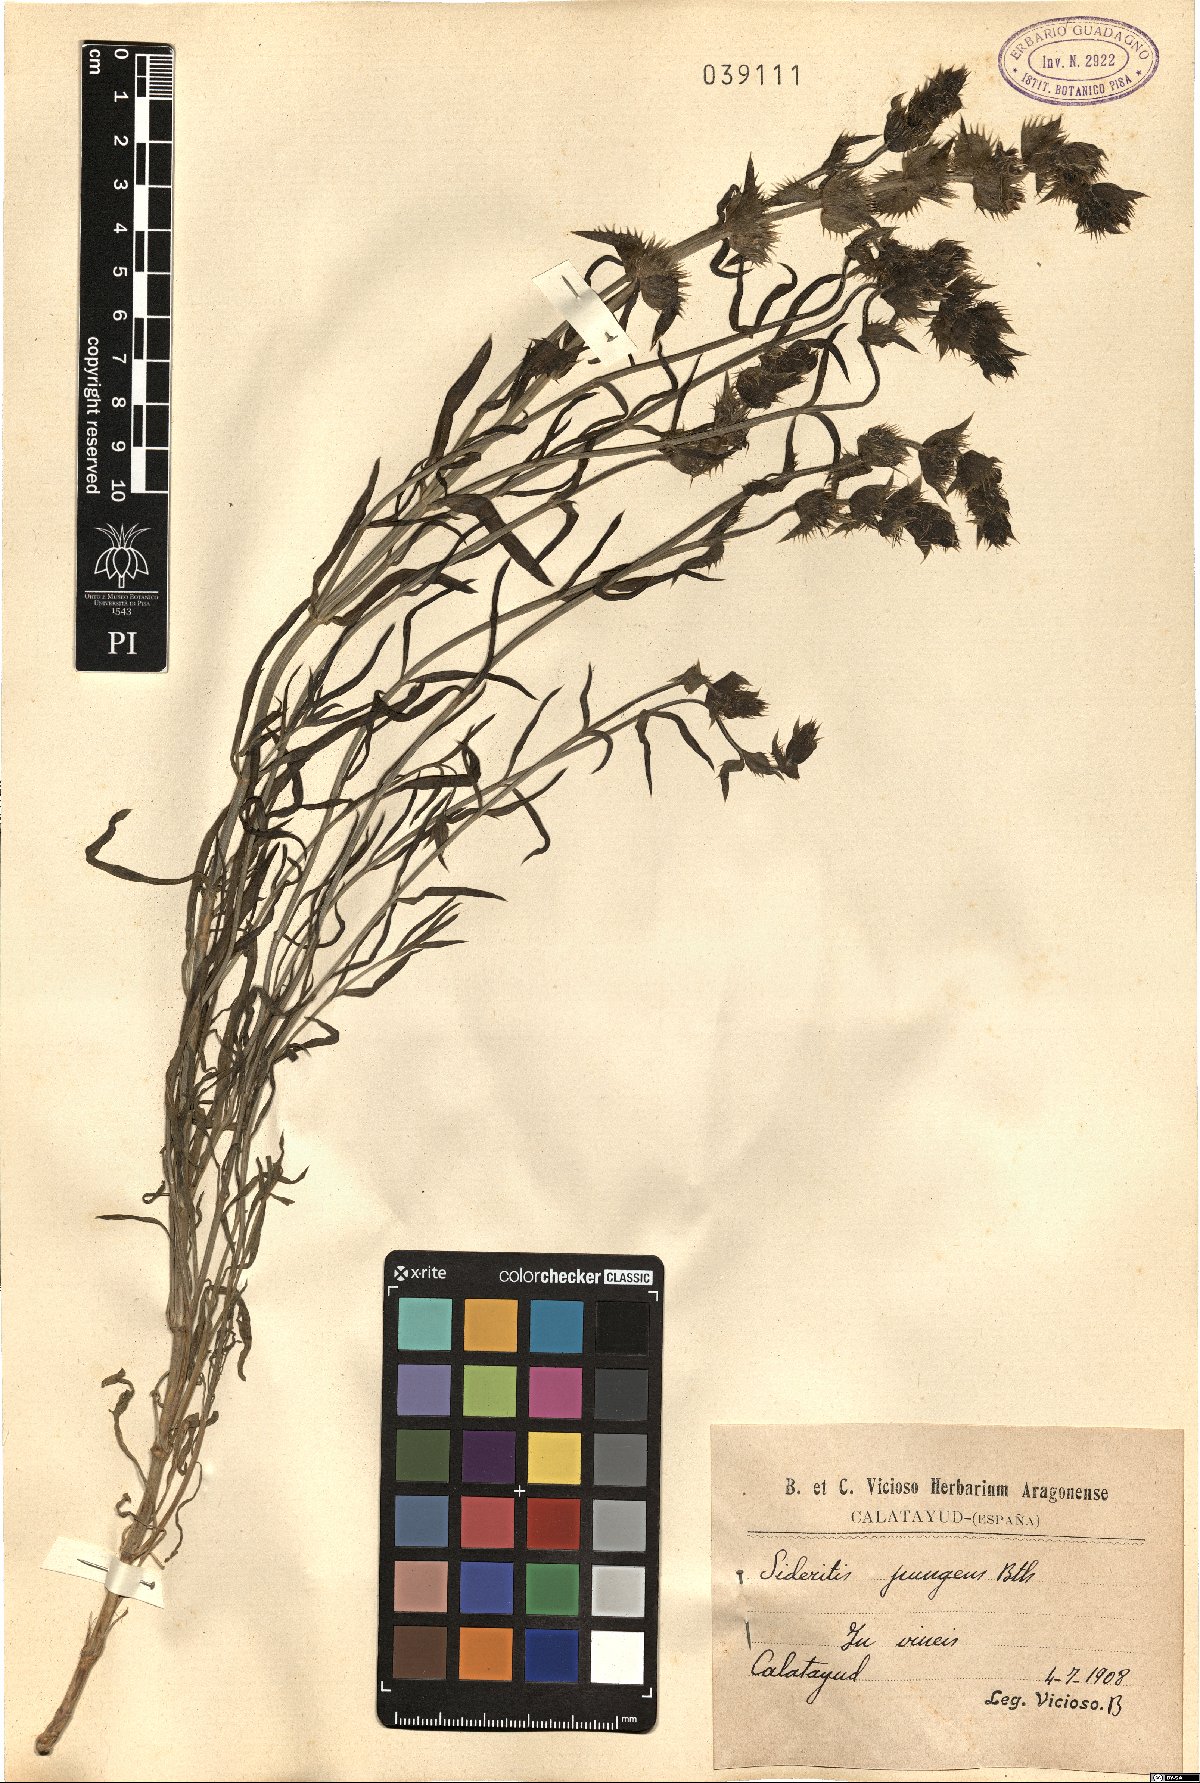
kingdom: Plantae
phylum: Tracheophyta
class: Magnoliopsida
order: Lamiales
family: Lamiaceae
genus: Sideritis
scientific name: Sideritis pungens
